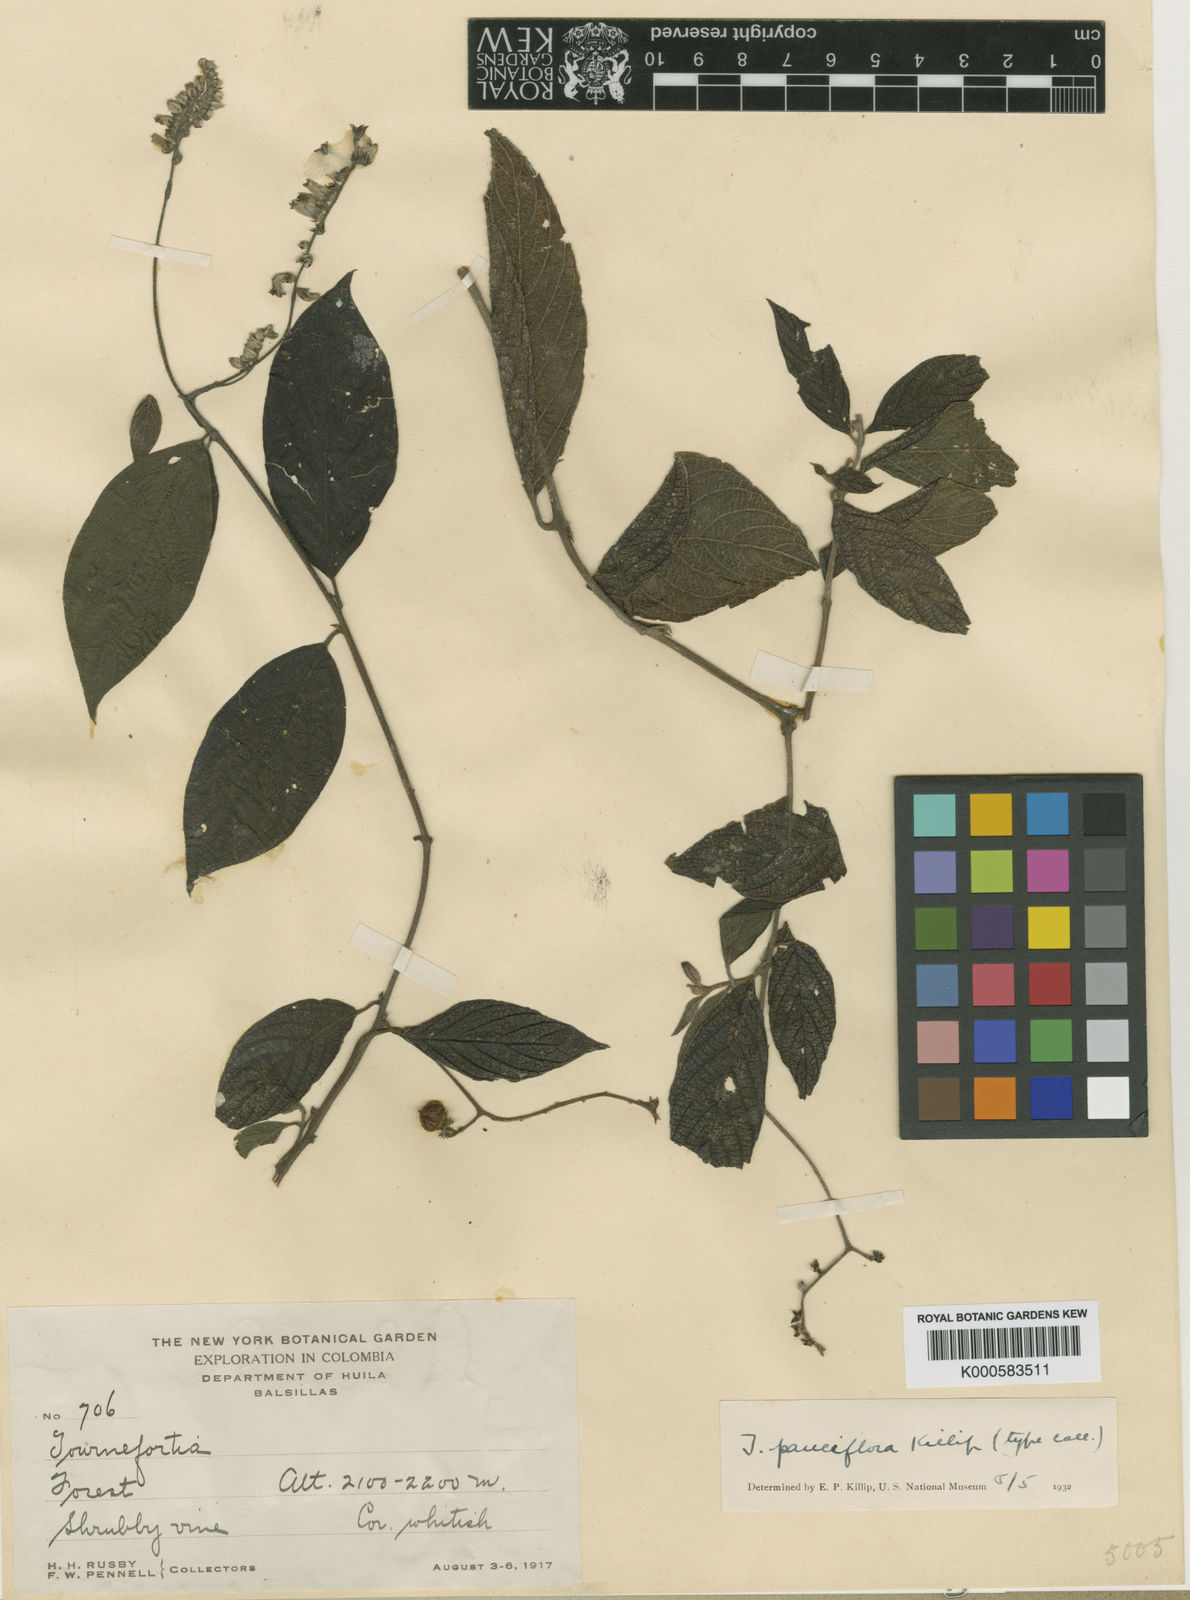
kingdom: Plantae
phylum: Tracheophyta
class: Magnoliopsida
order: Boraginales
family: Heliotropiaceae
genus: Tournefortia
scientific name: Tournefortia
